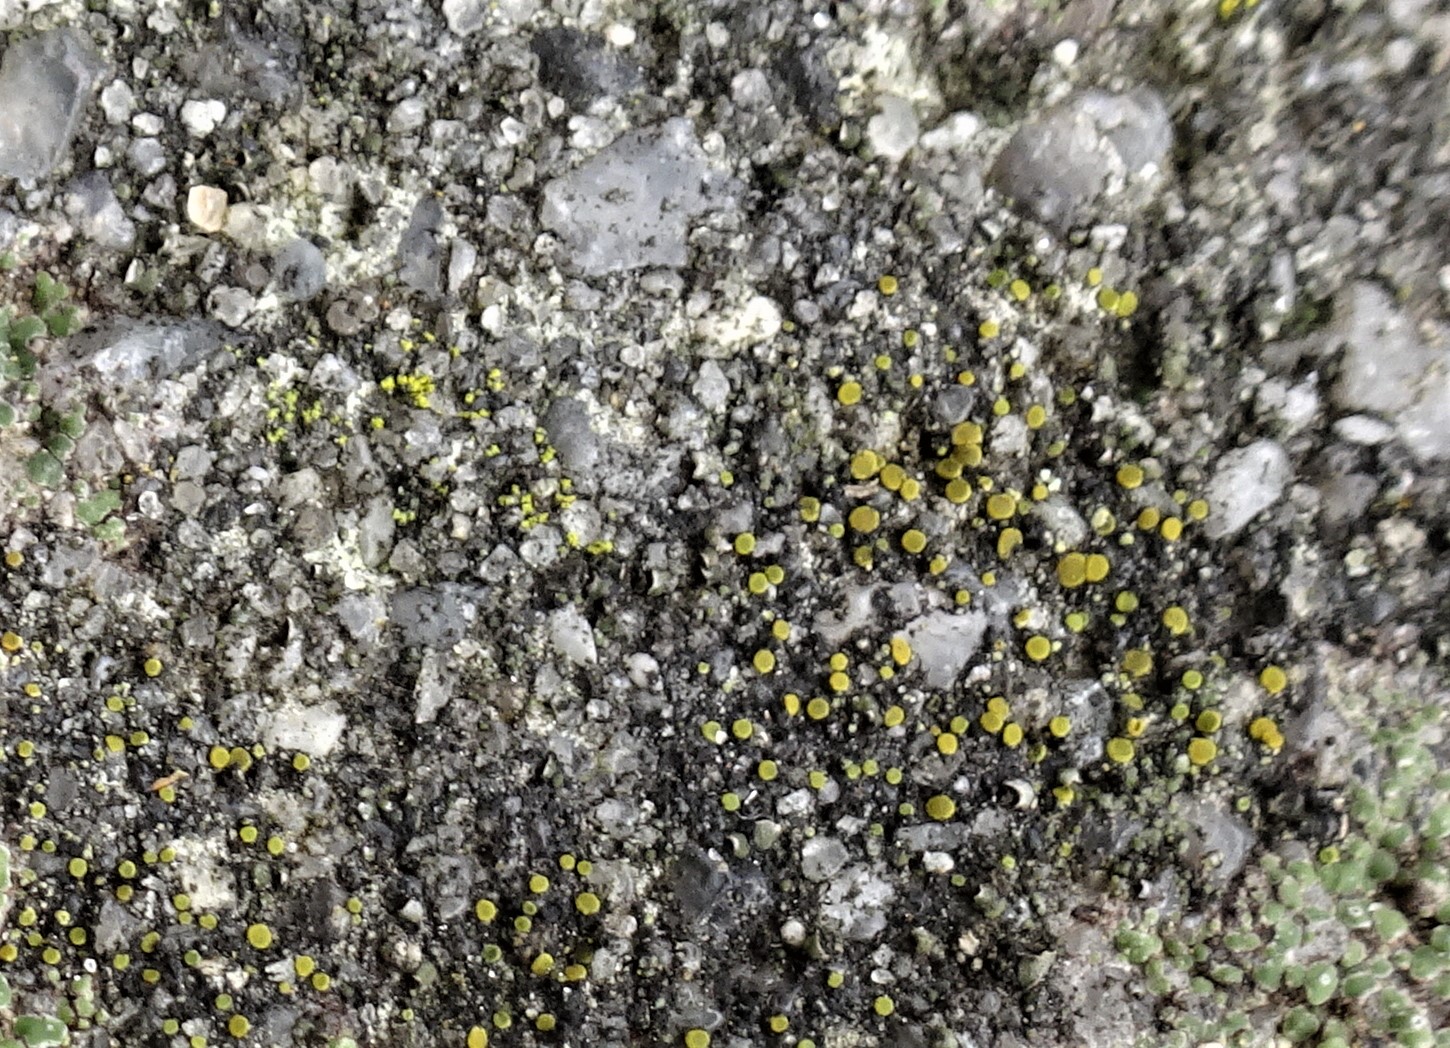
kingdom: Fungi
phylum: Ascomycota
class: Candelariomycetes
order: Candelariales
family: Candelariaceae
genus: Candelariella
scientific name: Candelariella aurella
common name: liden æggeblommelav
